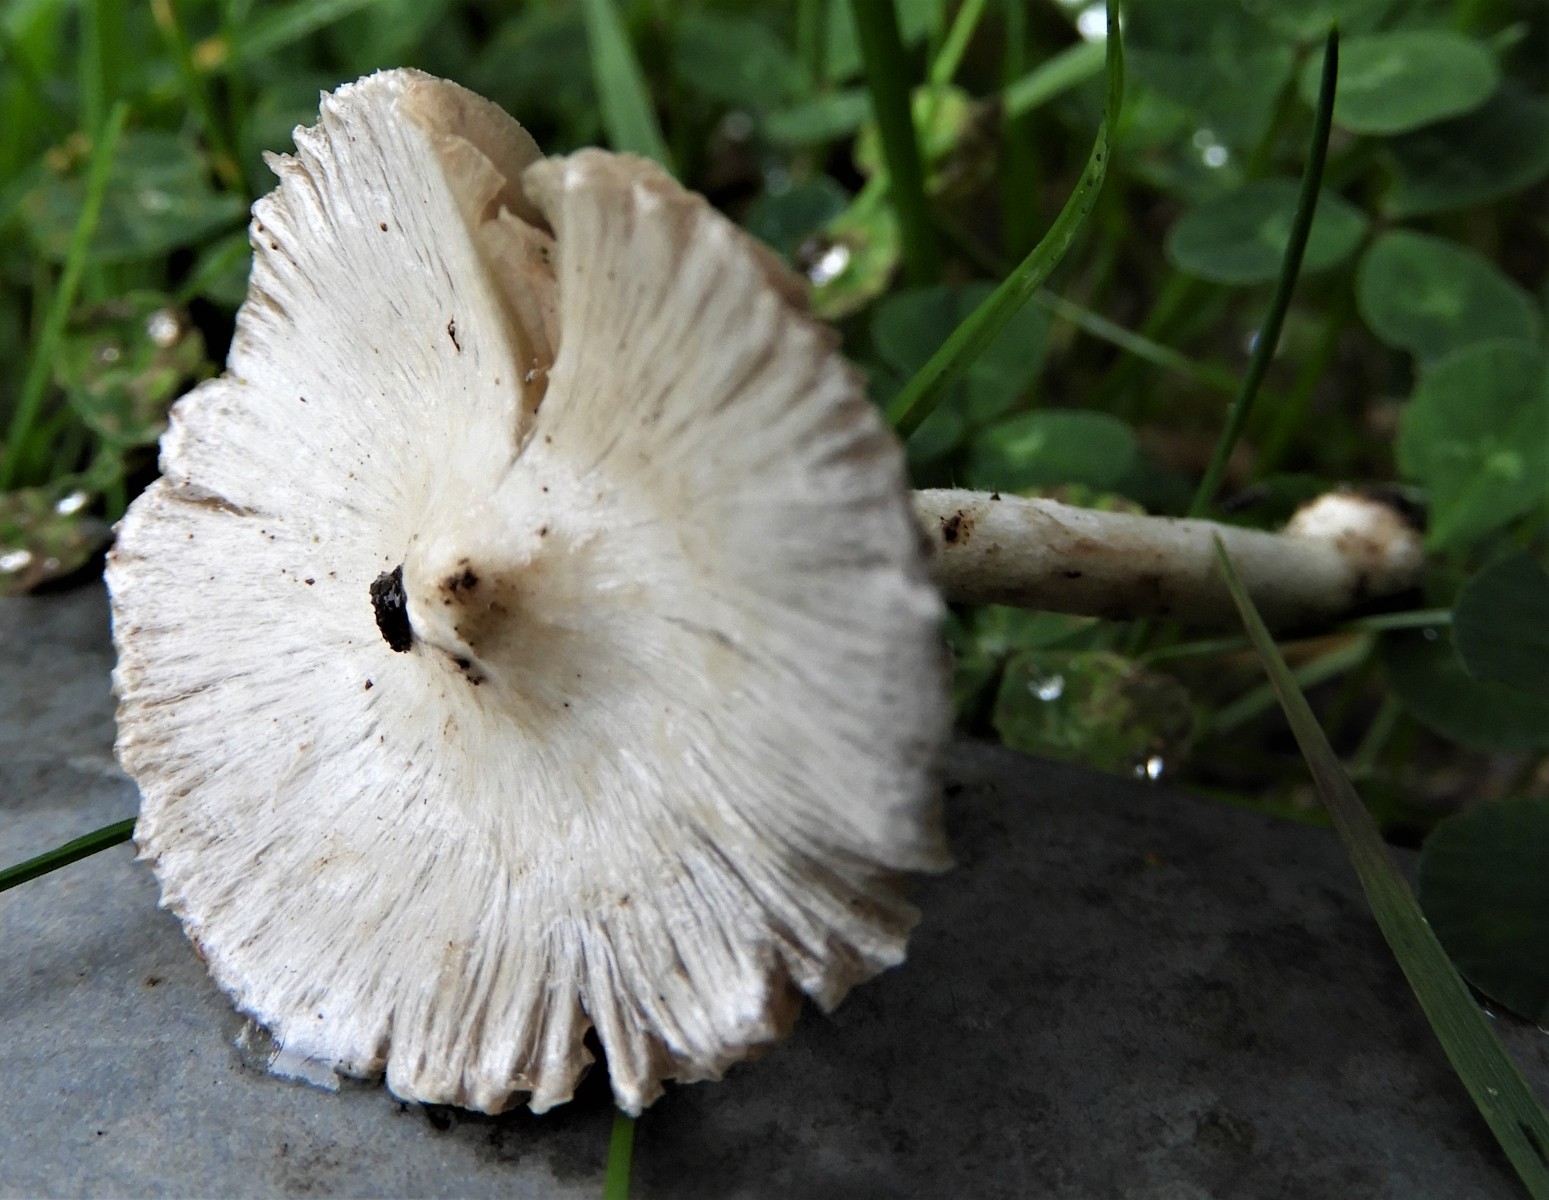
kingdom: Fungi
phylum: Basidiomycota
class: Agaricomycetes
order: Agaricales
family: Inocybaceae
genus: Inocybe
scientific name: Inocybe
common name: almindelig trævlhat
